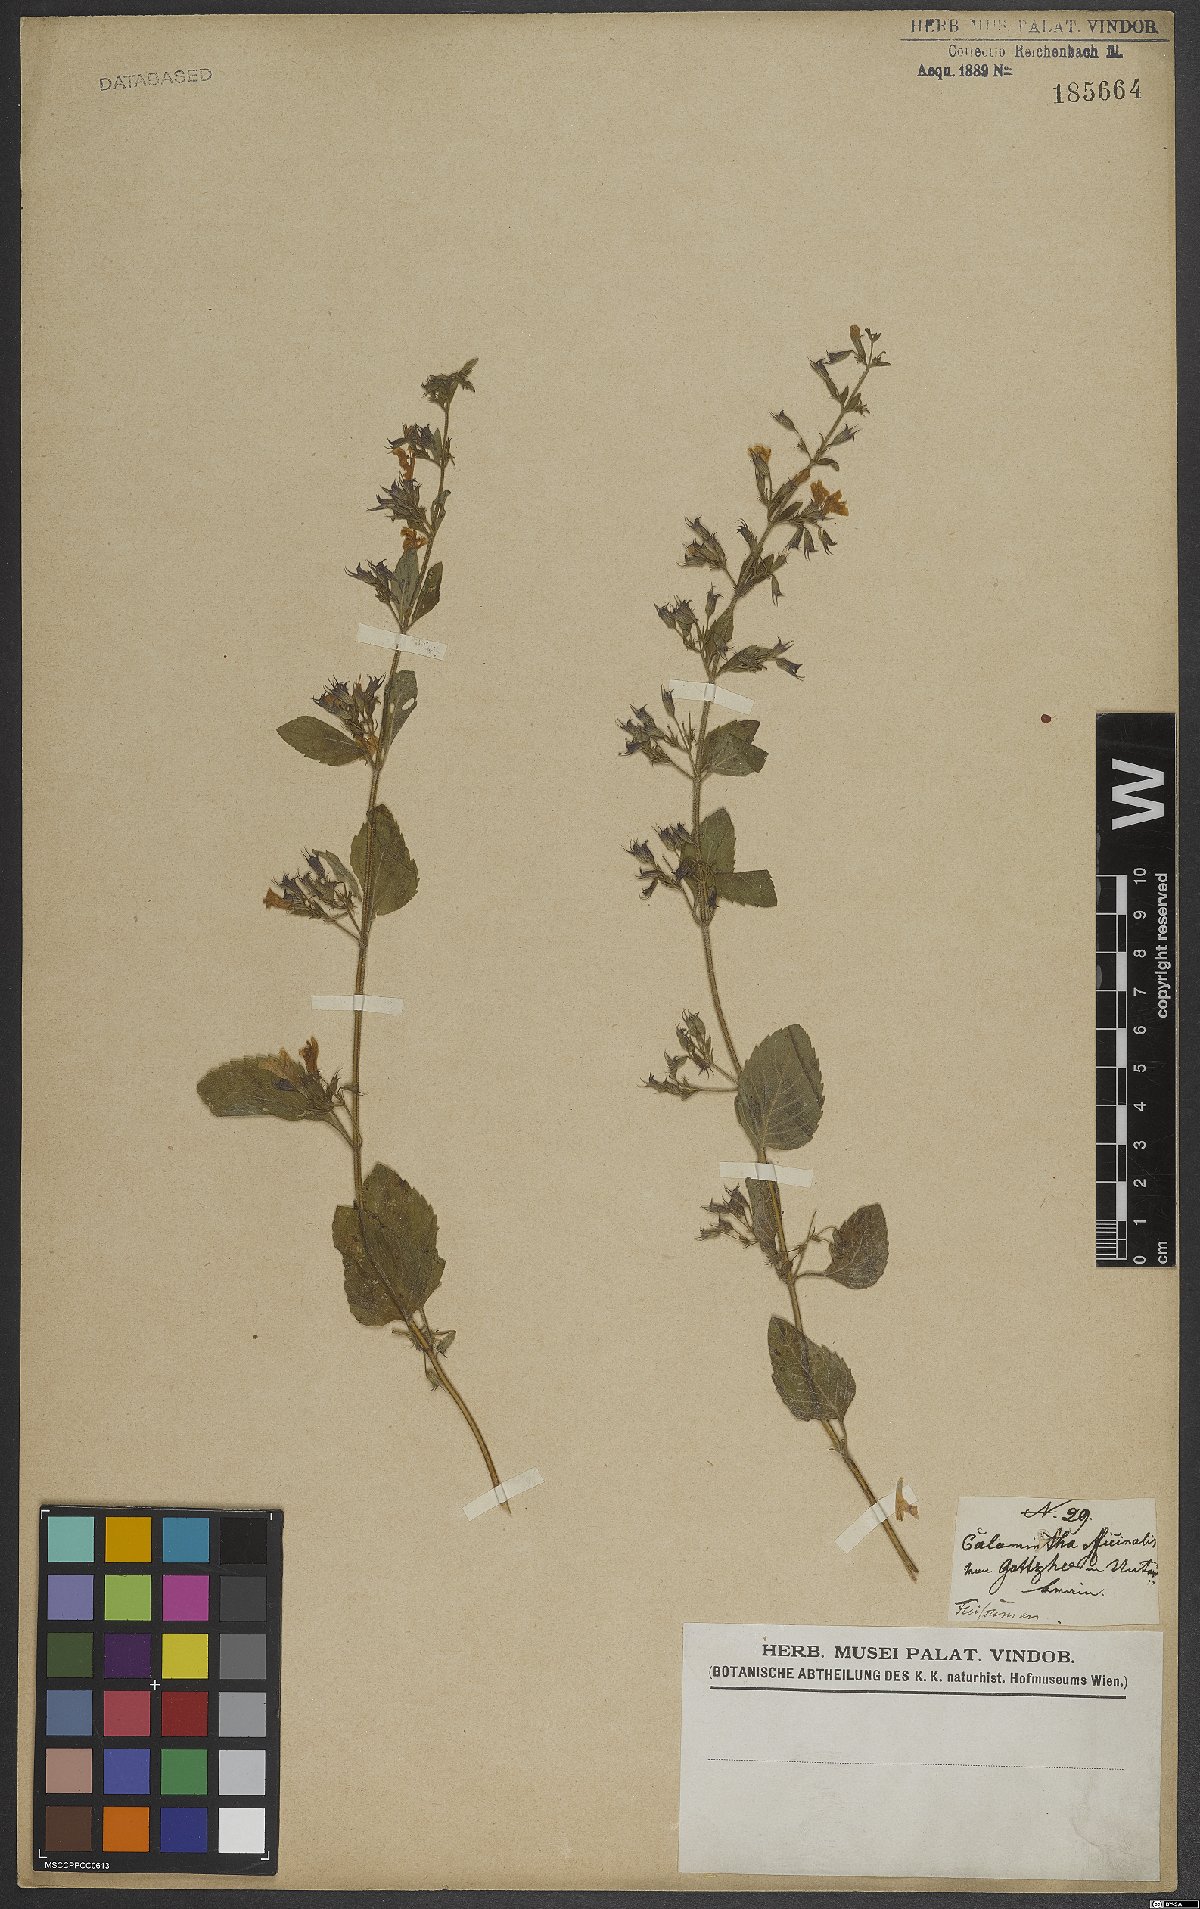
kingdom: Plantae
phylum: Tracheophyta
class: Magnoliopsida
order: Lamiales
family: Lamiaceae
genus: Clinopodium
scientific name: Clinopodium nepeta
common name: Lesser calamint
